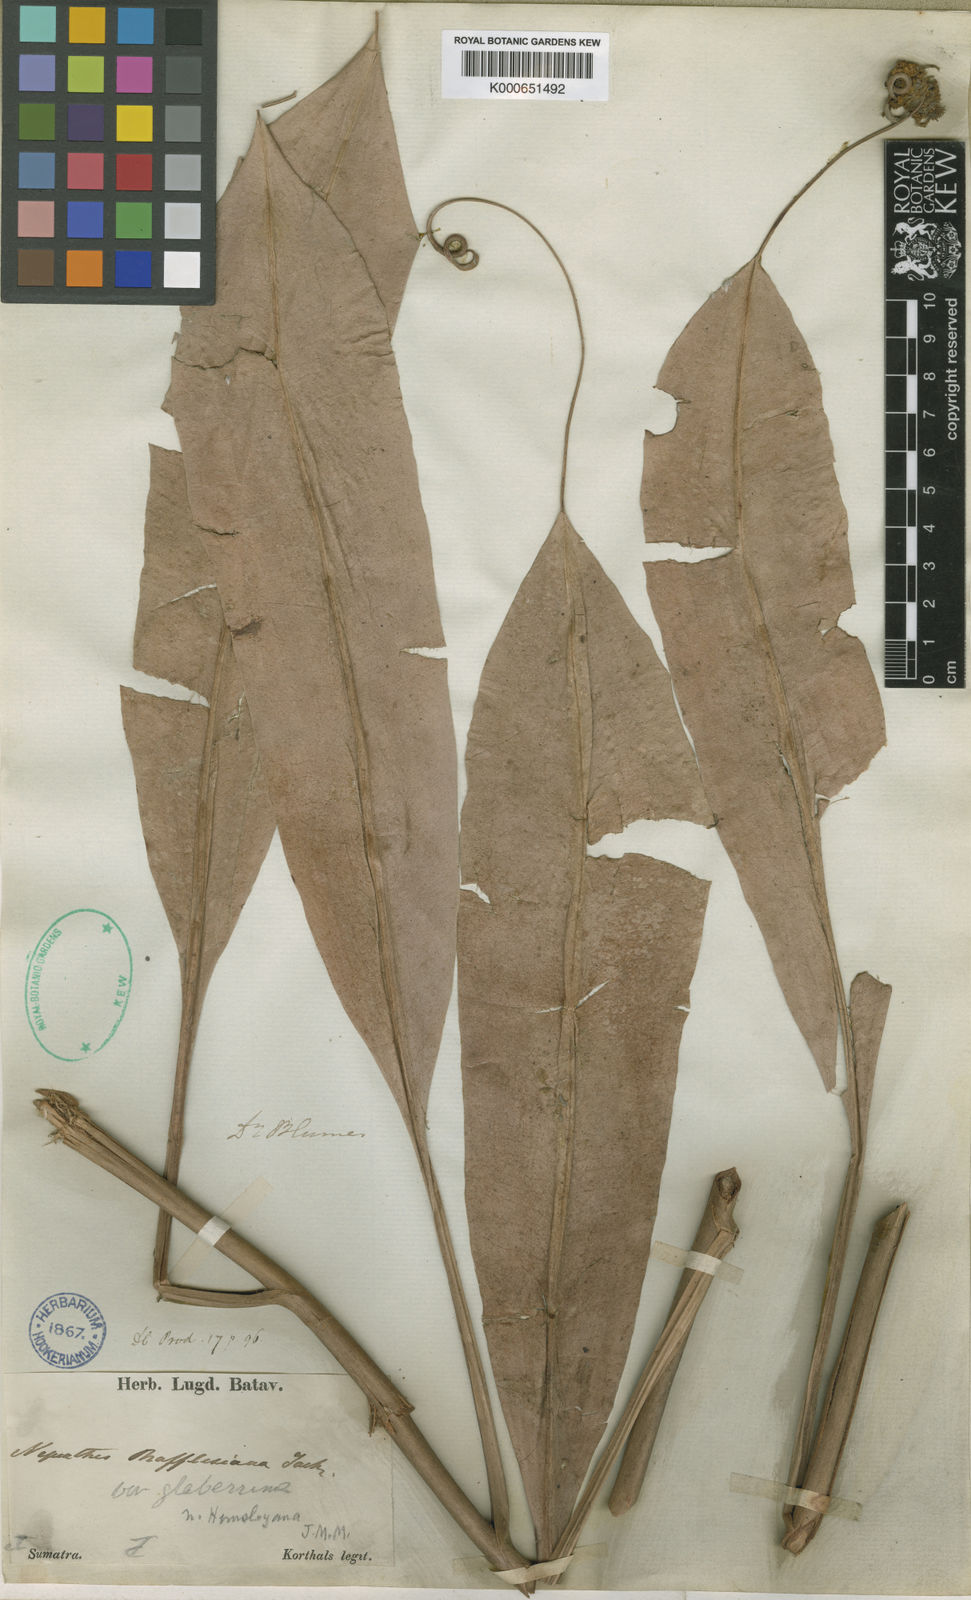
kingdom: Plantae
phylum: Tracheophyta
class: Magnoliopsida
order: Caryophyllales
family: Nepenthaceae
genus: Nepenthes
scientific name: Nepenthes rafflesiana
